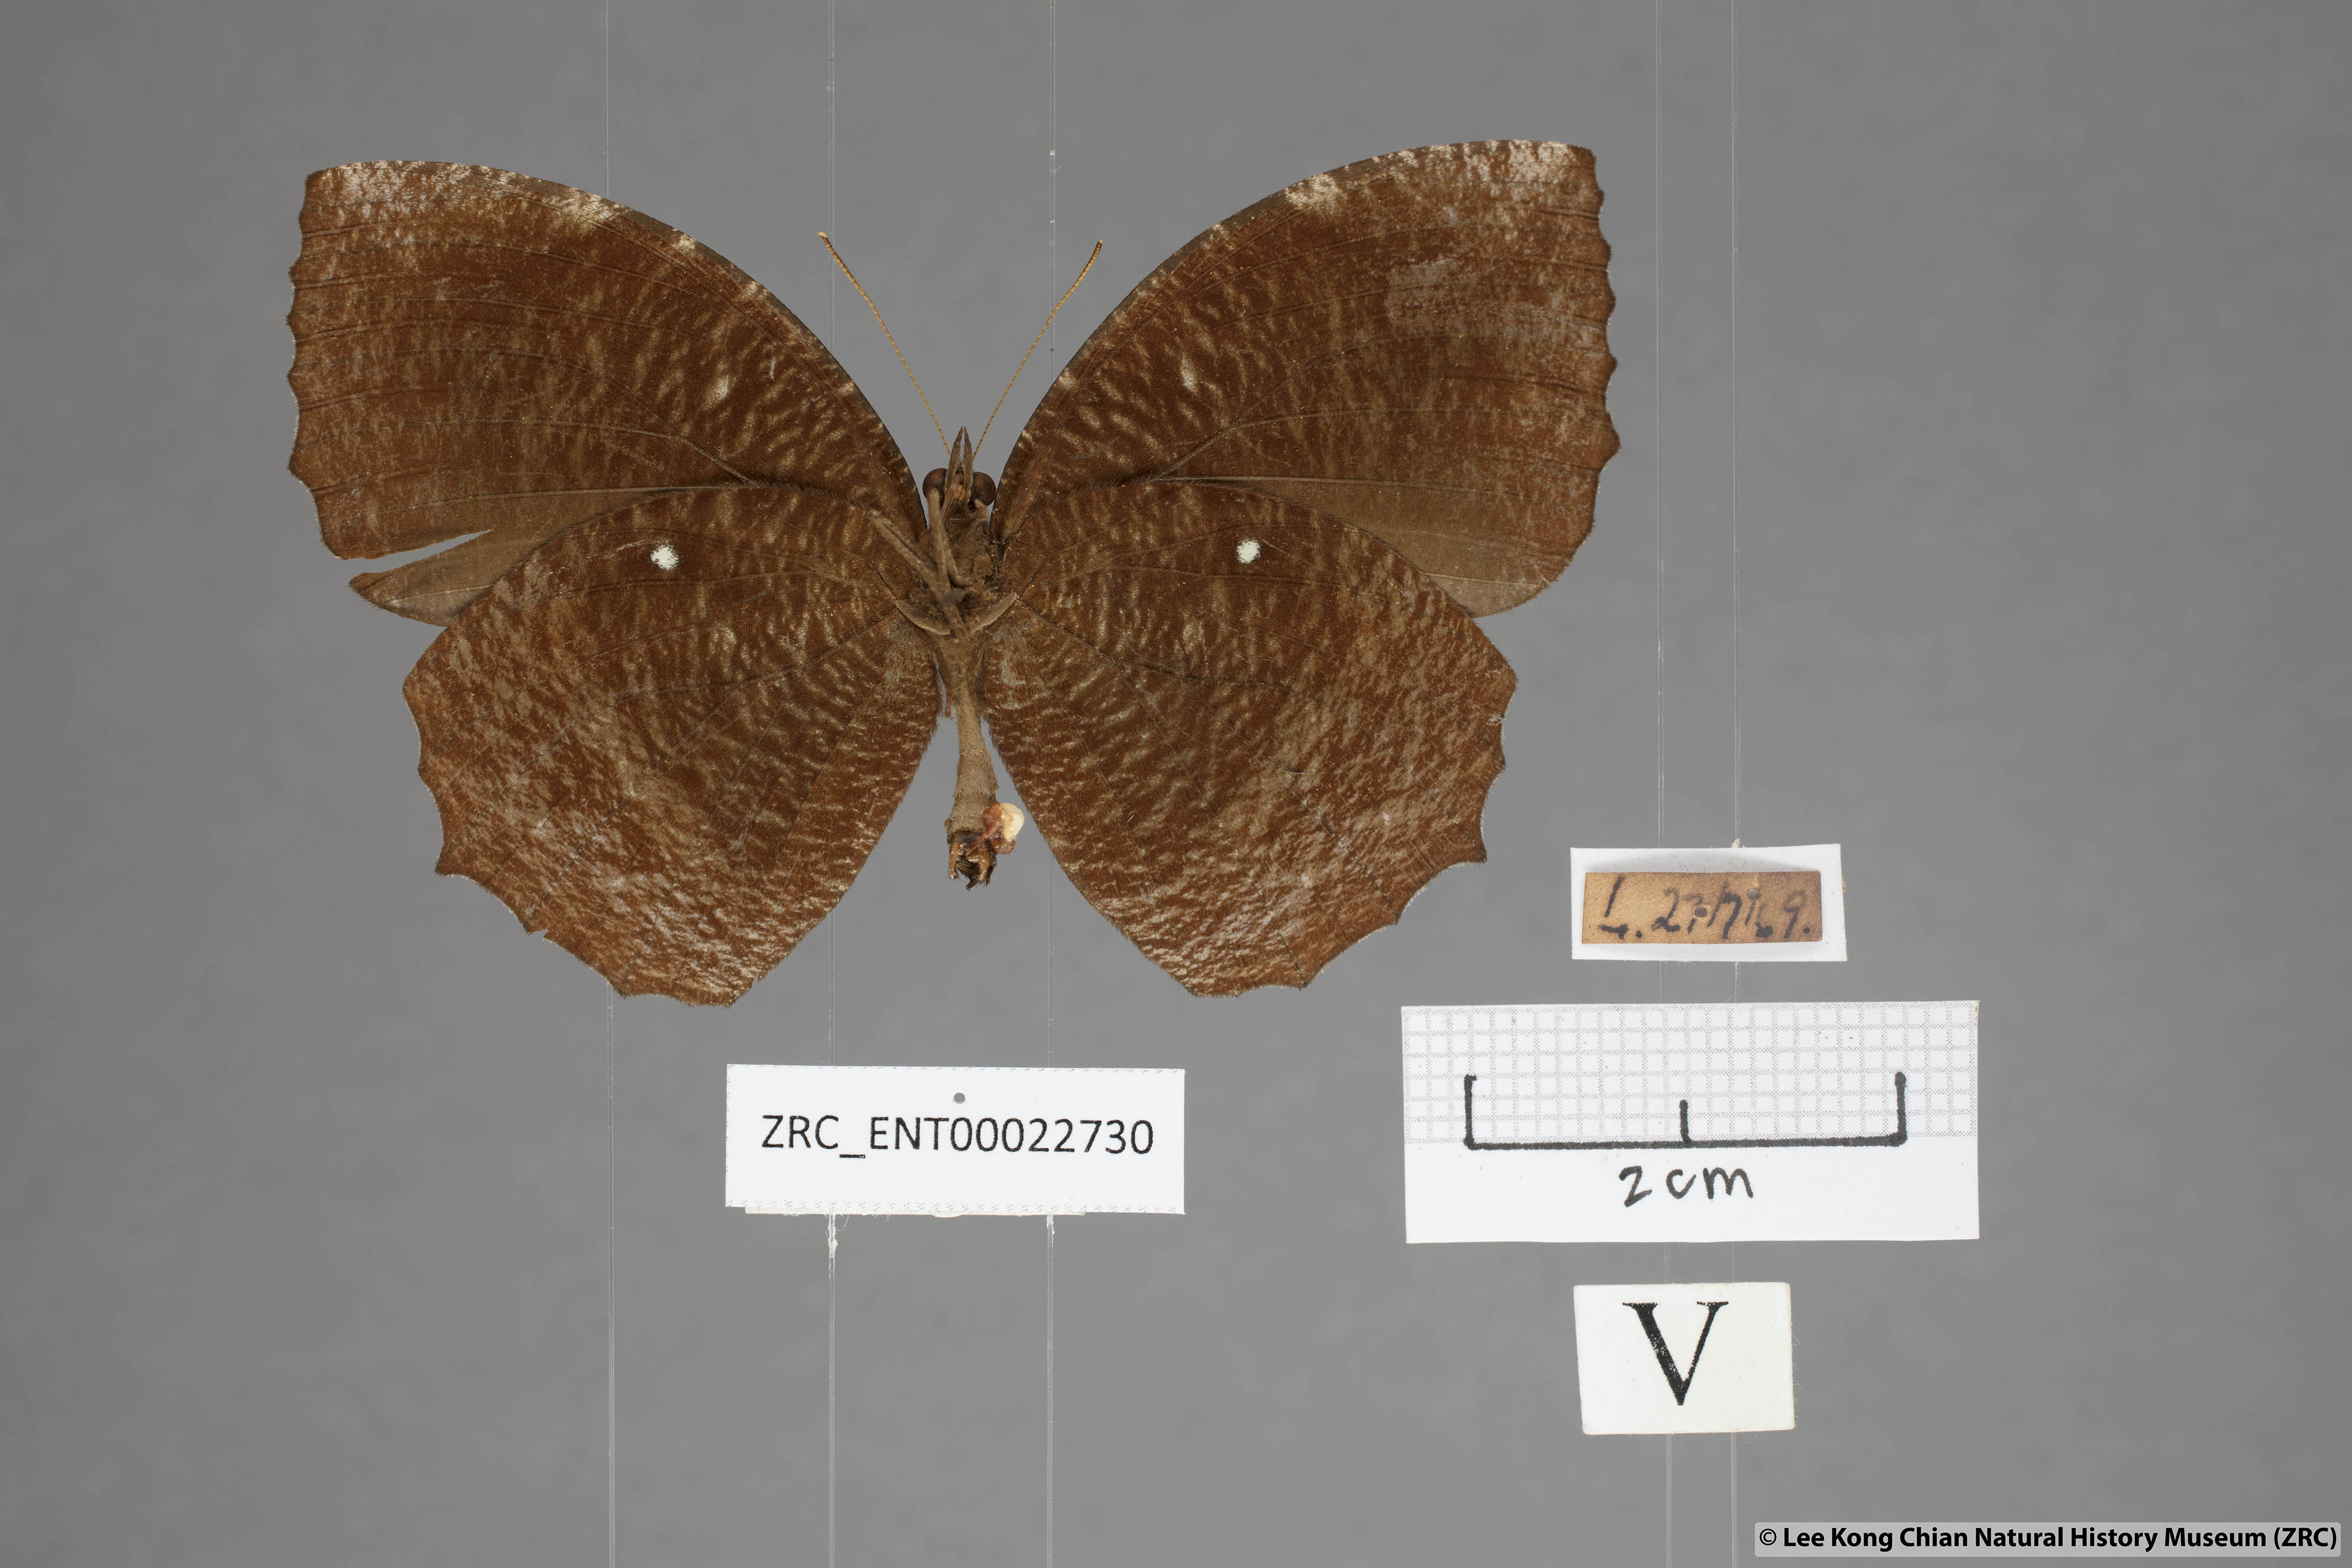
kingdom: Animalia
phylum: Arthropoda
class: Insecta
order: Lepidoptera
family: Nymphalidae
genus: Elymnias
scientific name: Elymnias hypermnestra
